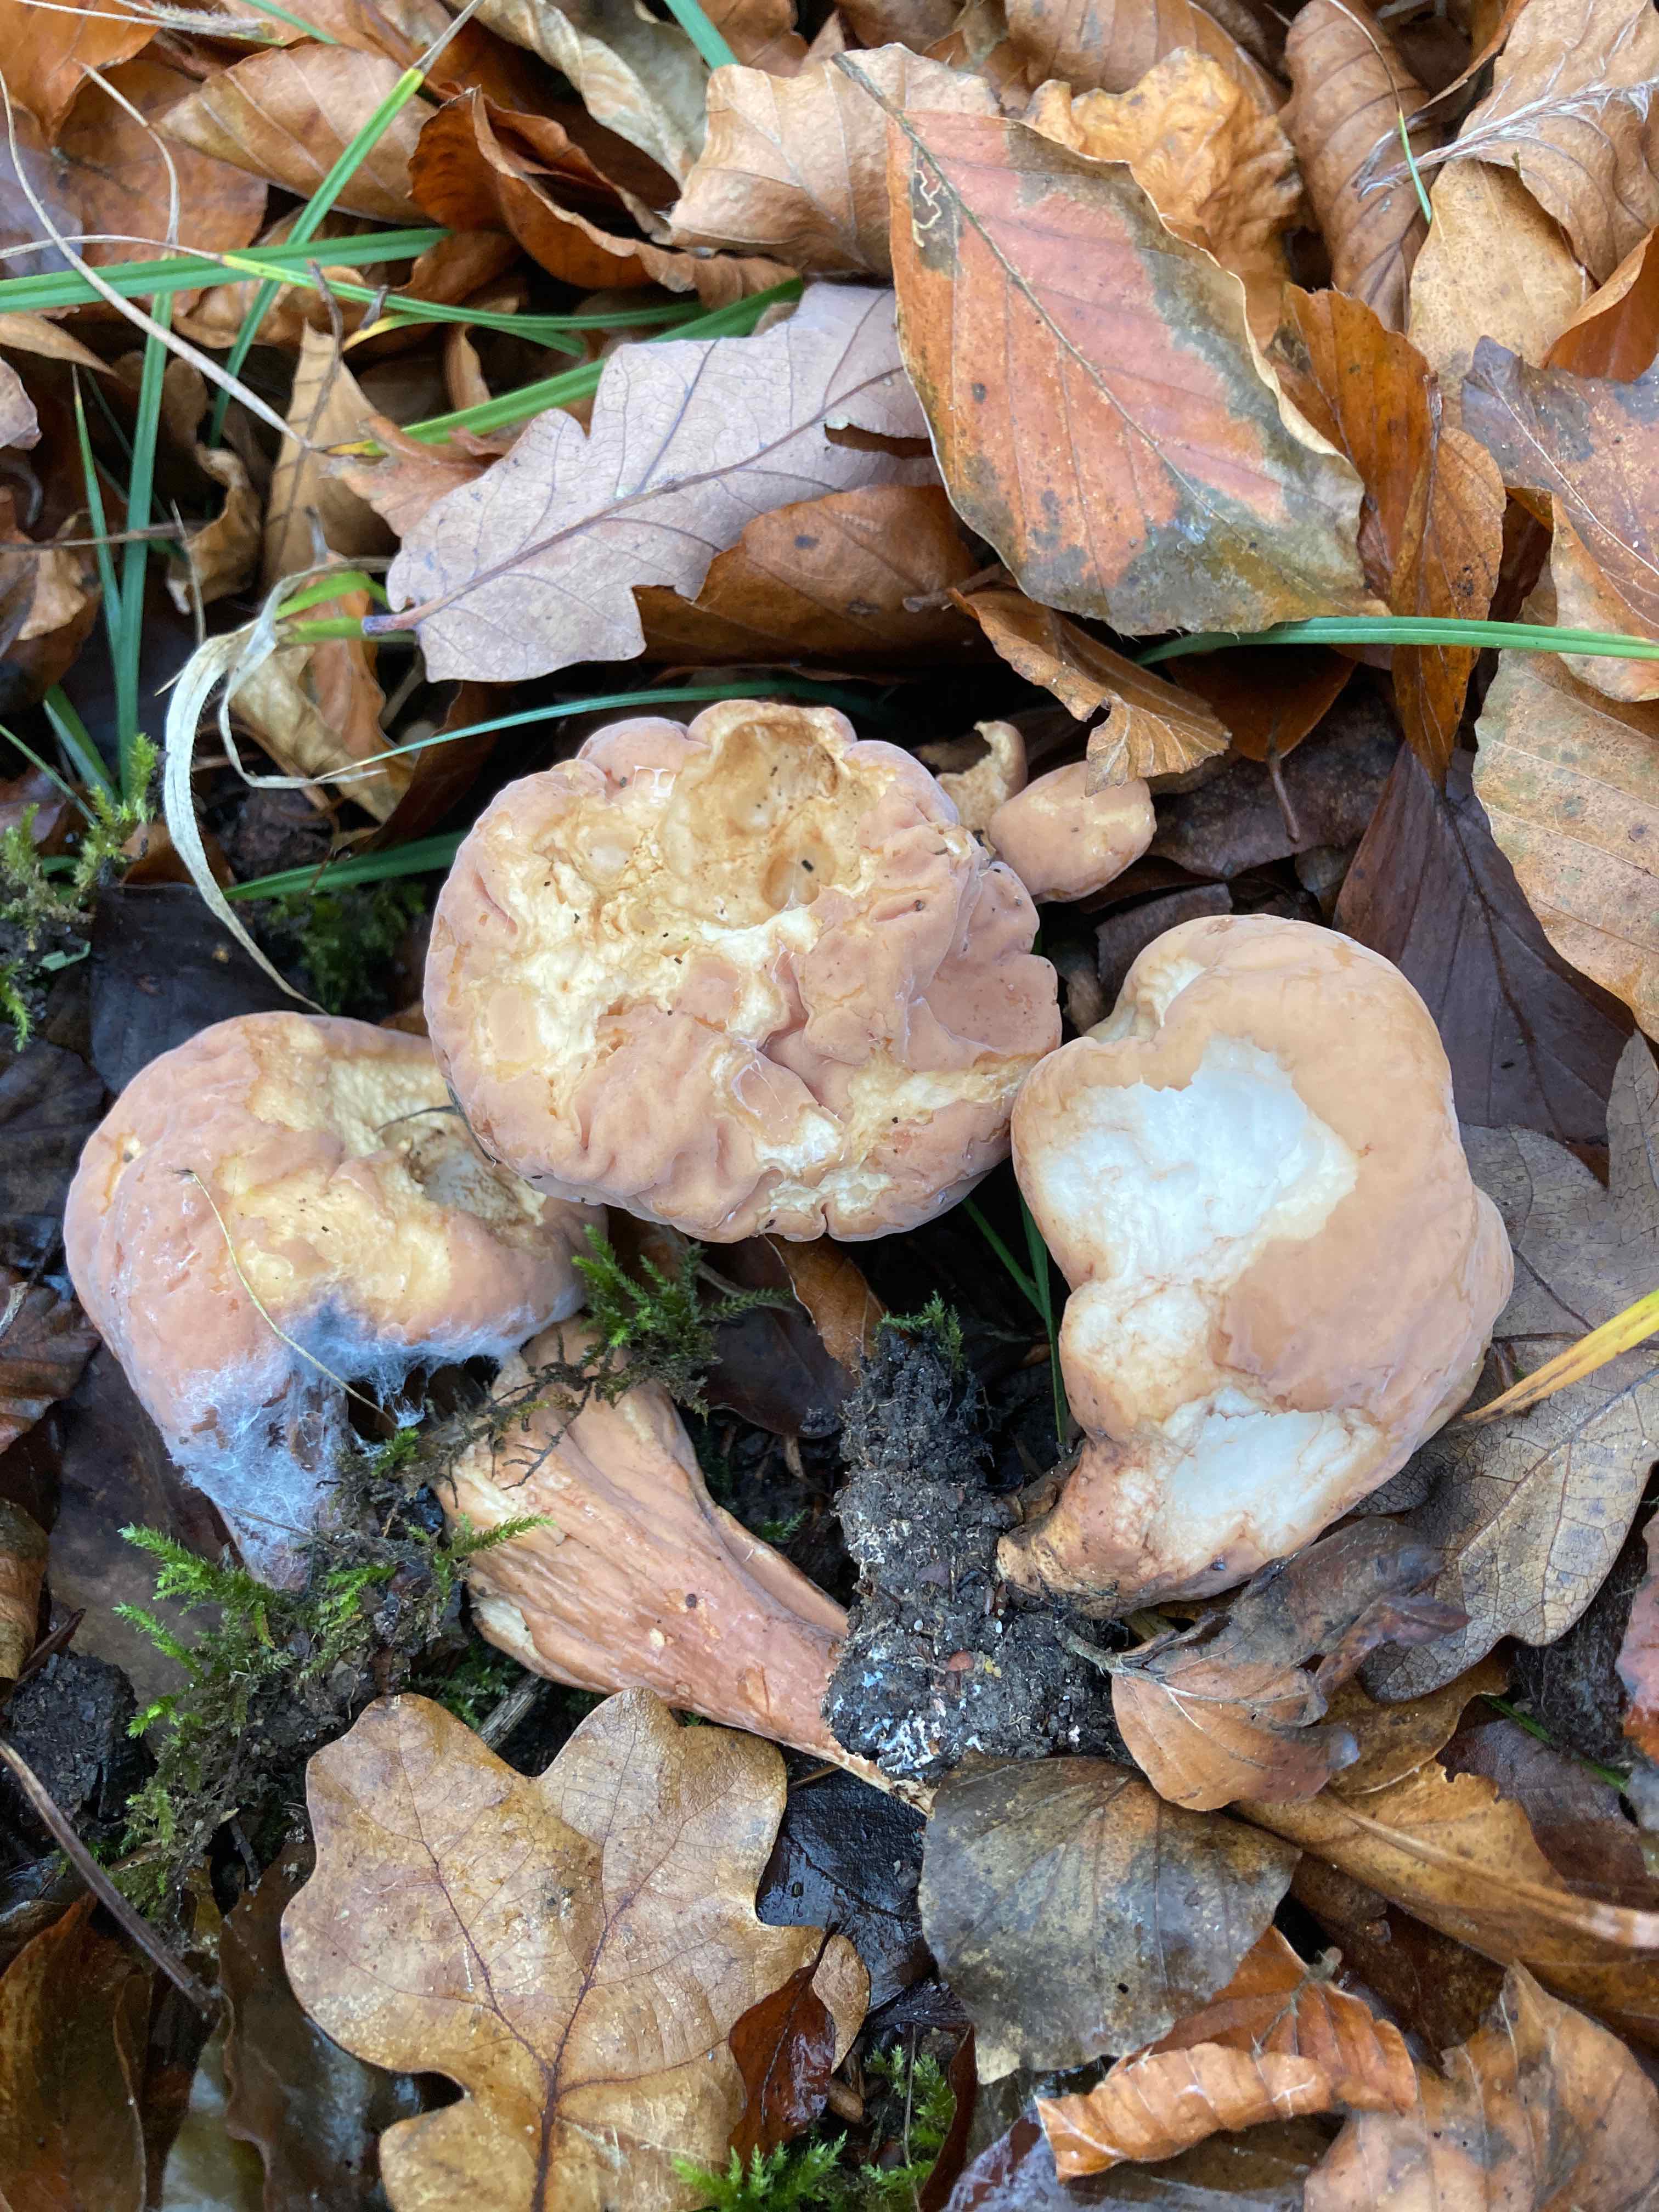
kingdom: Fungi
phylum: Basidiomycota
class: Agaricomycetes
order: Gomphales
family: Clavariadelphaceae
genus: Clavariadelphus
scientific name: Clavariadelphus pistillaris
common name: herkules-kæmpekølle
